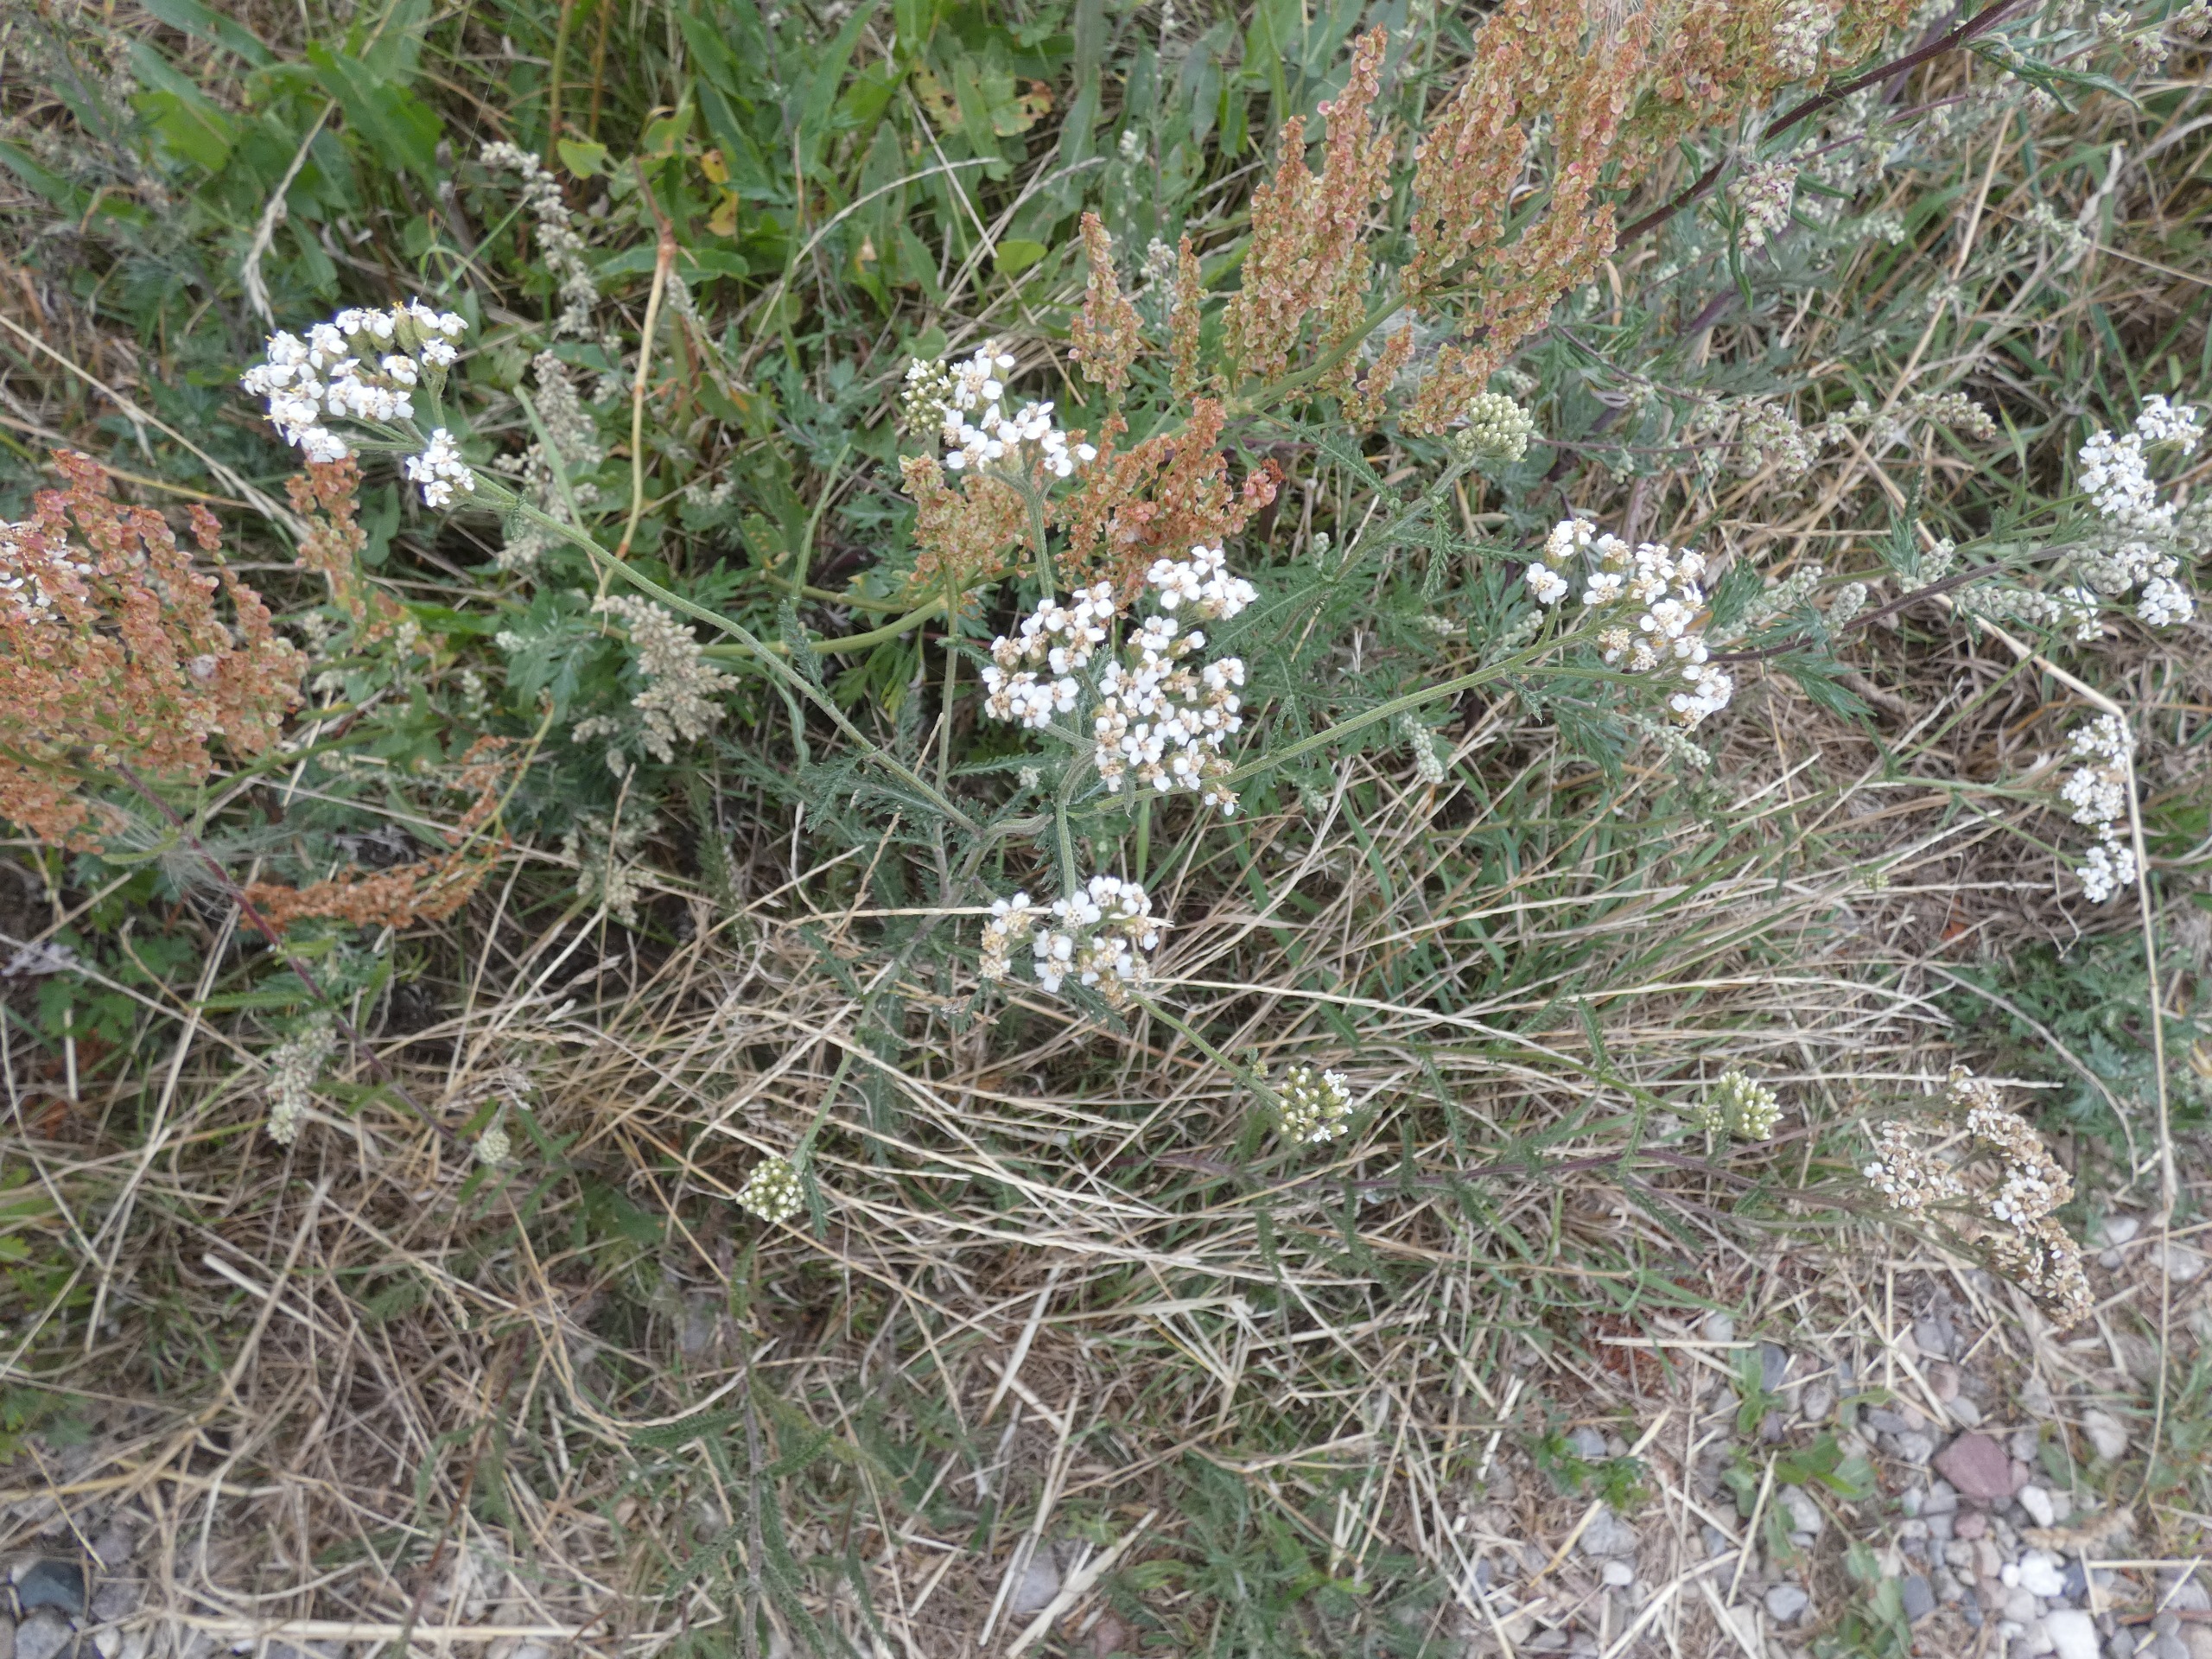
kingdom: Plantae
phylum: Tracheophyta
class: Magnoliopsida
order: Asterales
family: Asteraceae
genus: Achillea
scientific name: Achillea millefolium
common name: Almindelig røllike
